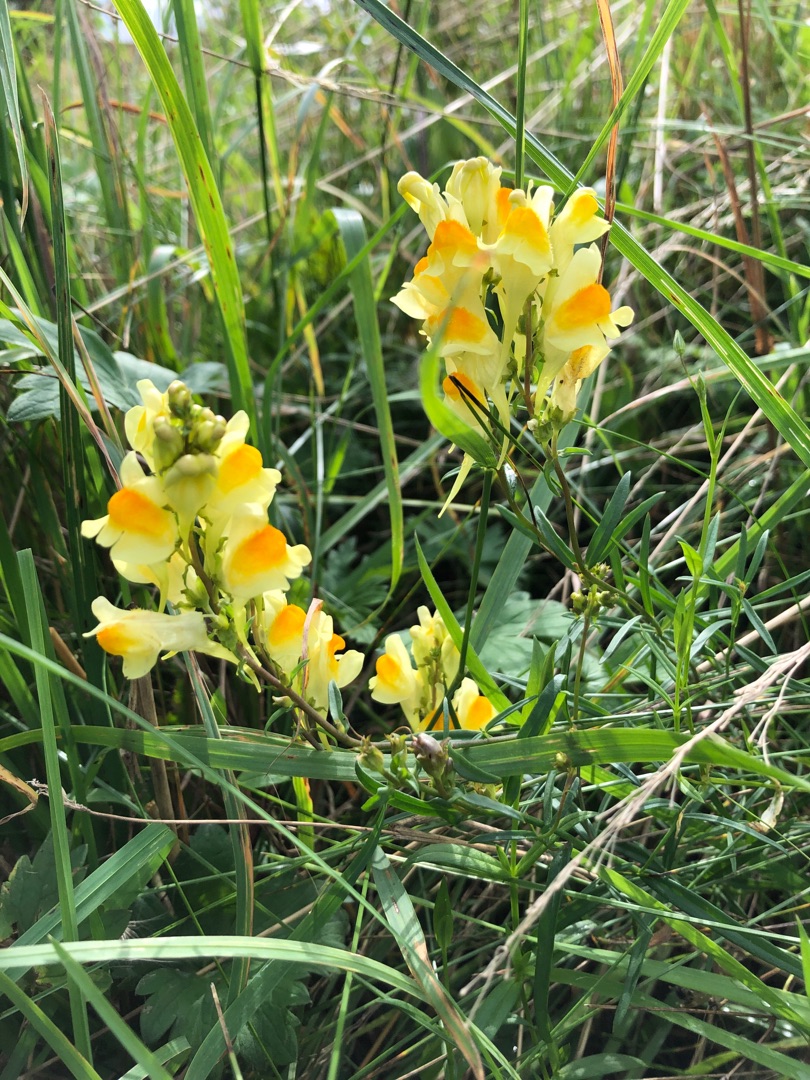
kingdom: Plantae
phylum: Tracheophyta
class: Magnoliopsida
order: Lamiales
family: Plantaginaceae
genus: Linaria
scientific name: Linaria vulgaris
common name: Almindelig torskemund
